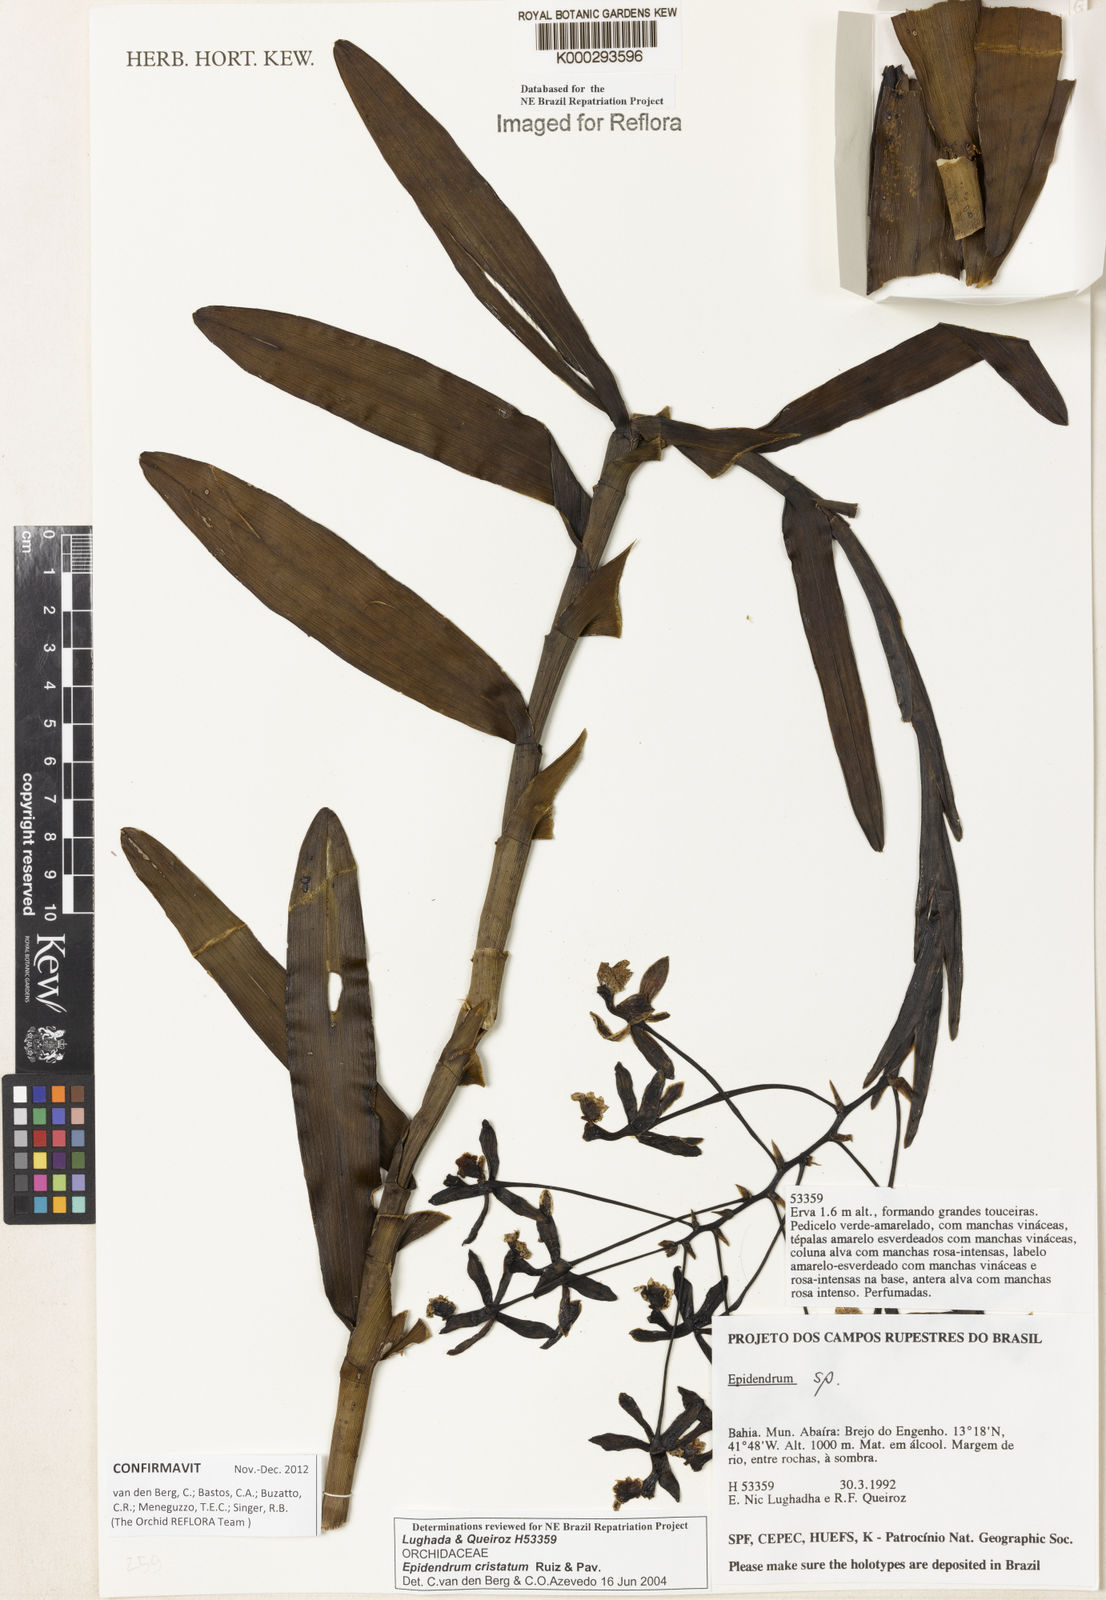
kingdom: Plantae
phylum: Tracheophyta
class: Liliopsida
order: Asparagales
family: Orchidaceae
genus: Epidendrum
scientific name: Epidendrum cristatum
